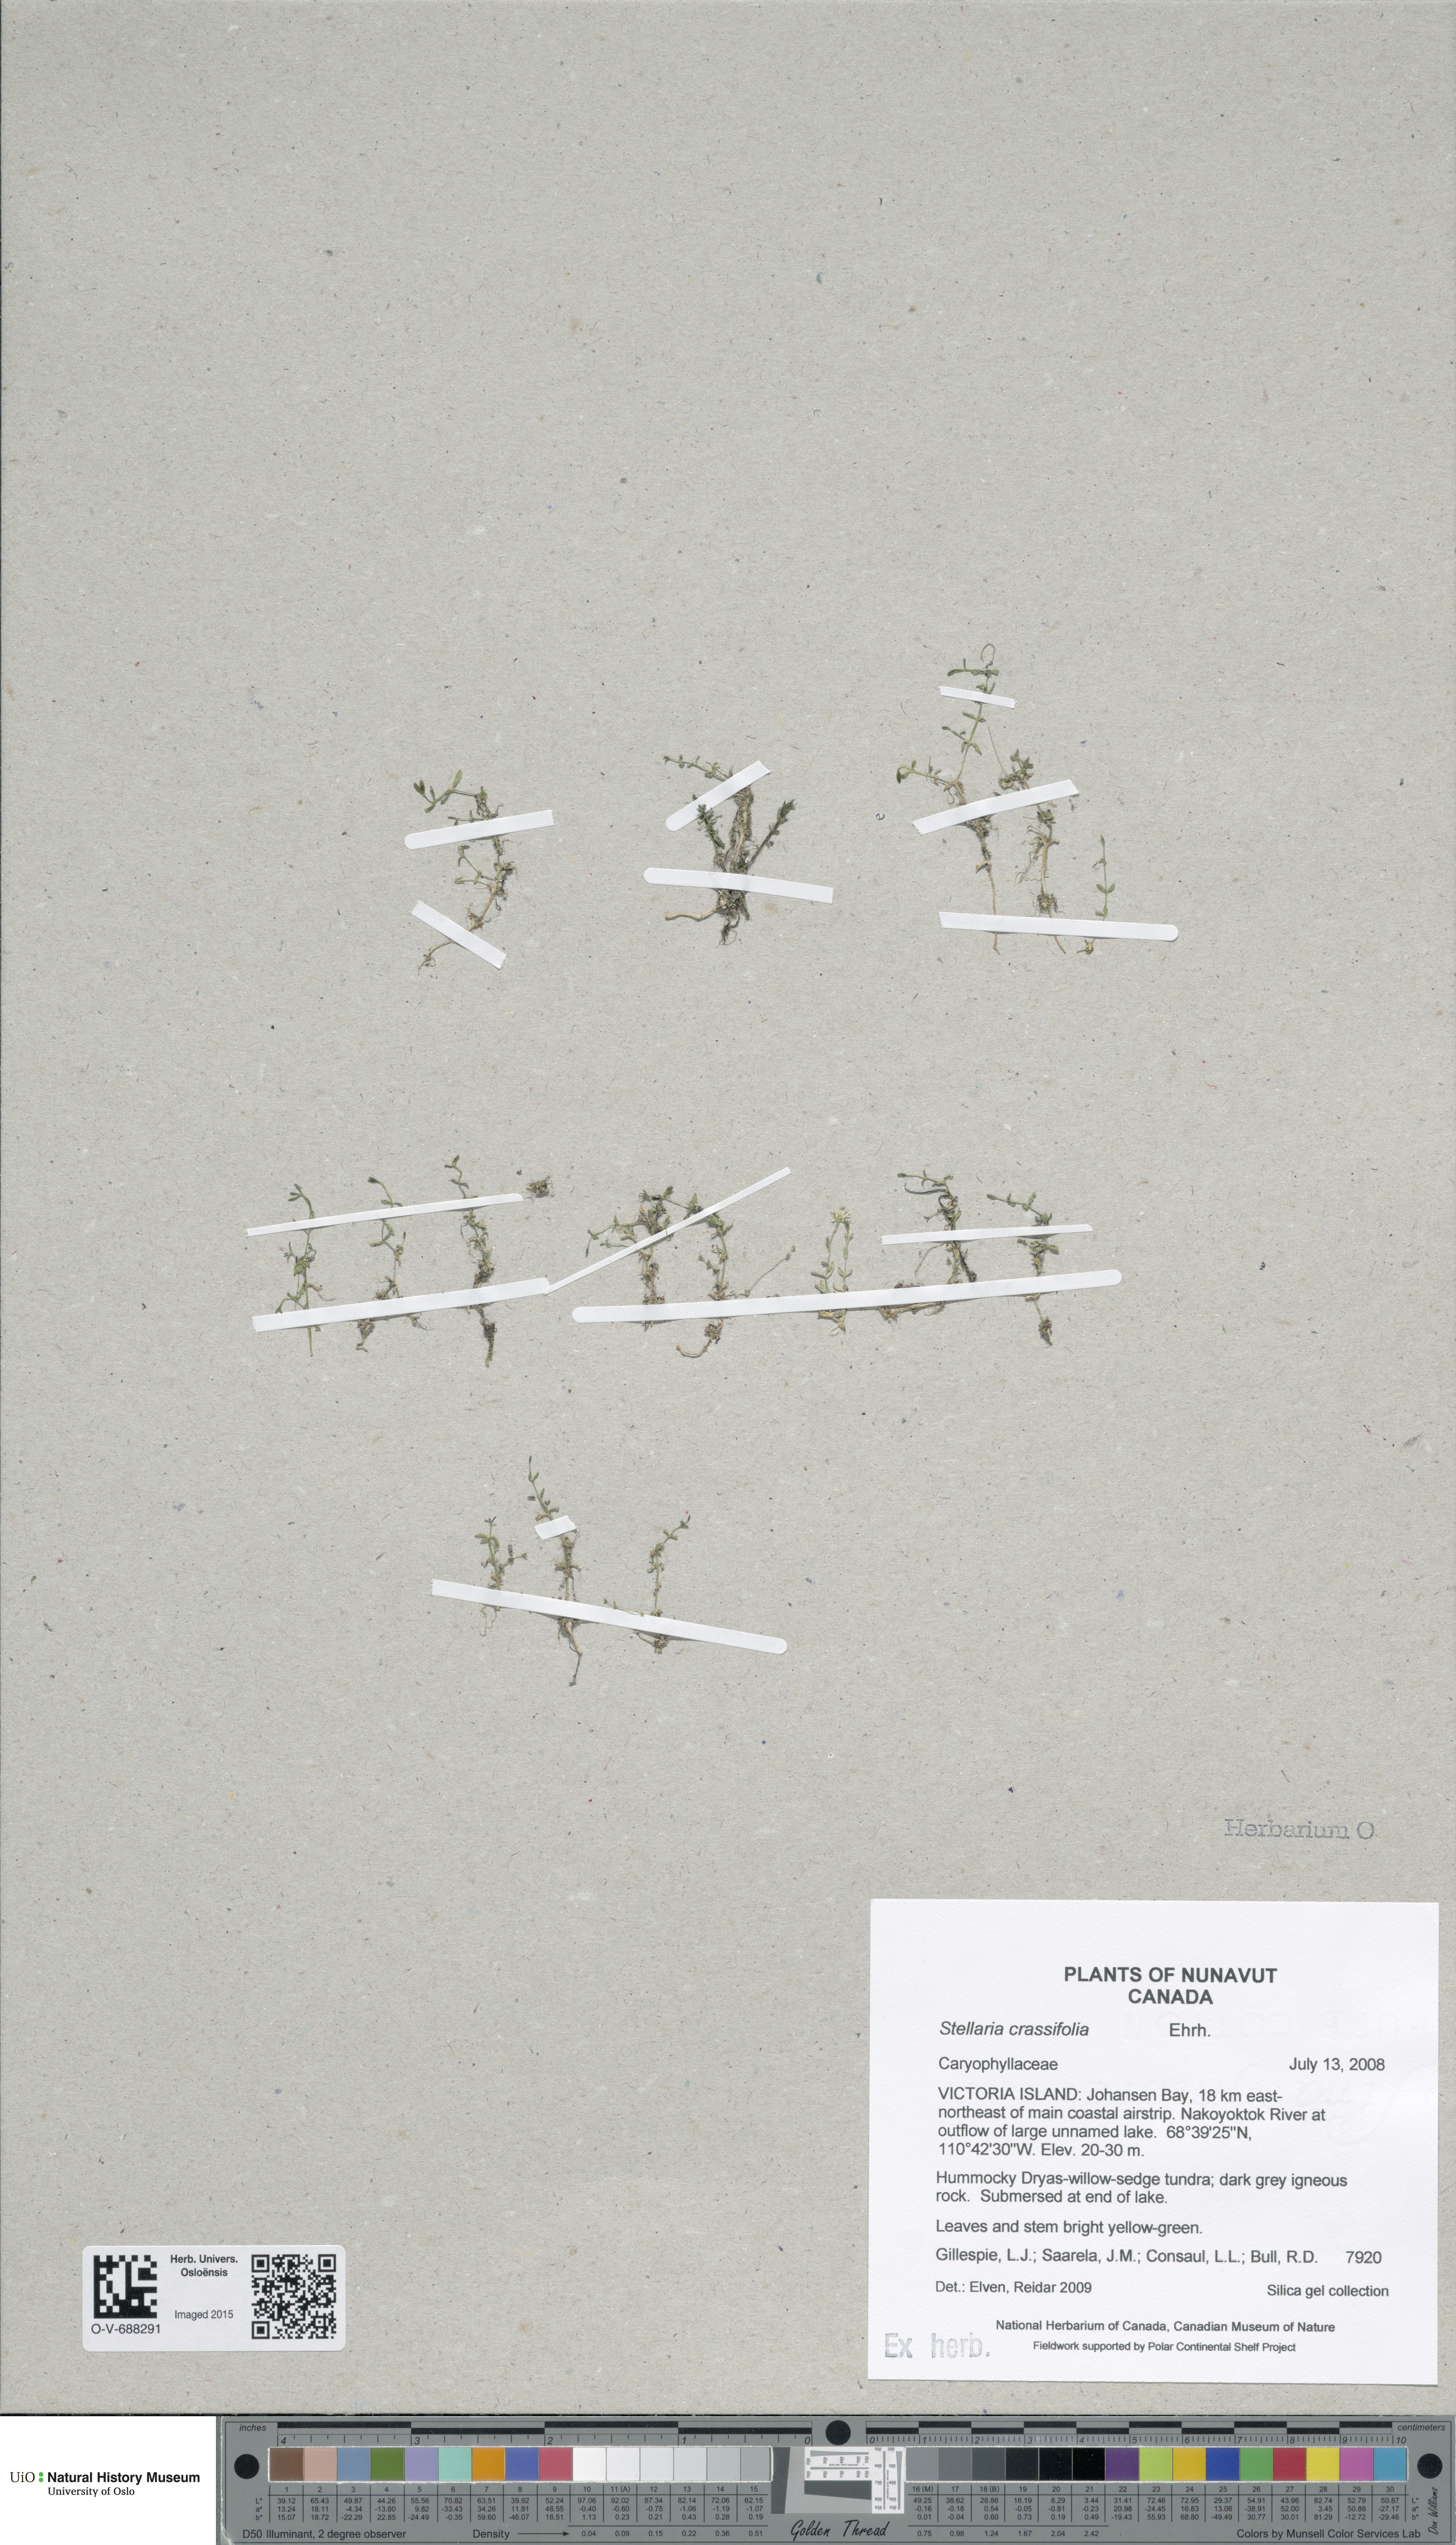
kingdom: Plantae
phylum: Tracheophyta
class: Magnoliopsida
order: Caryophyllales
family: Caryophyllaceae
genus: Stellaria
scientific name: Stellaria crassifolia
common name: Fleshy starwort
